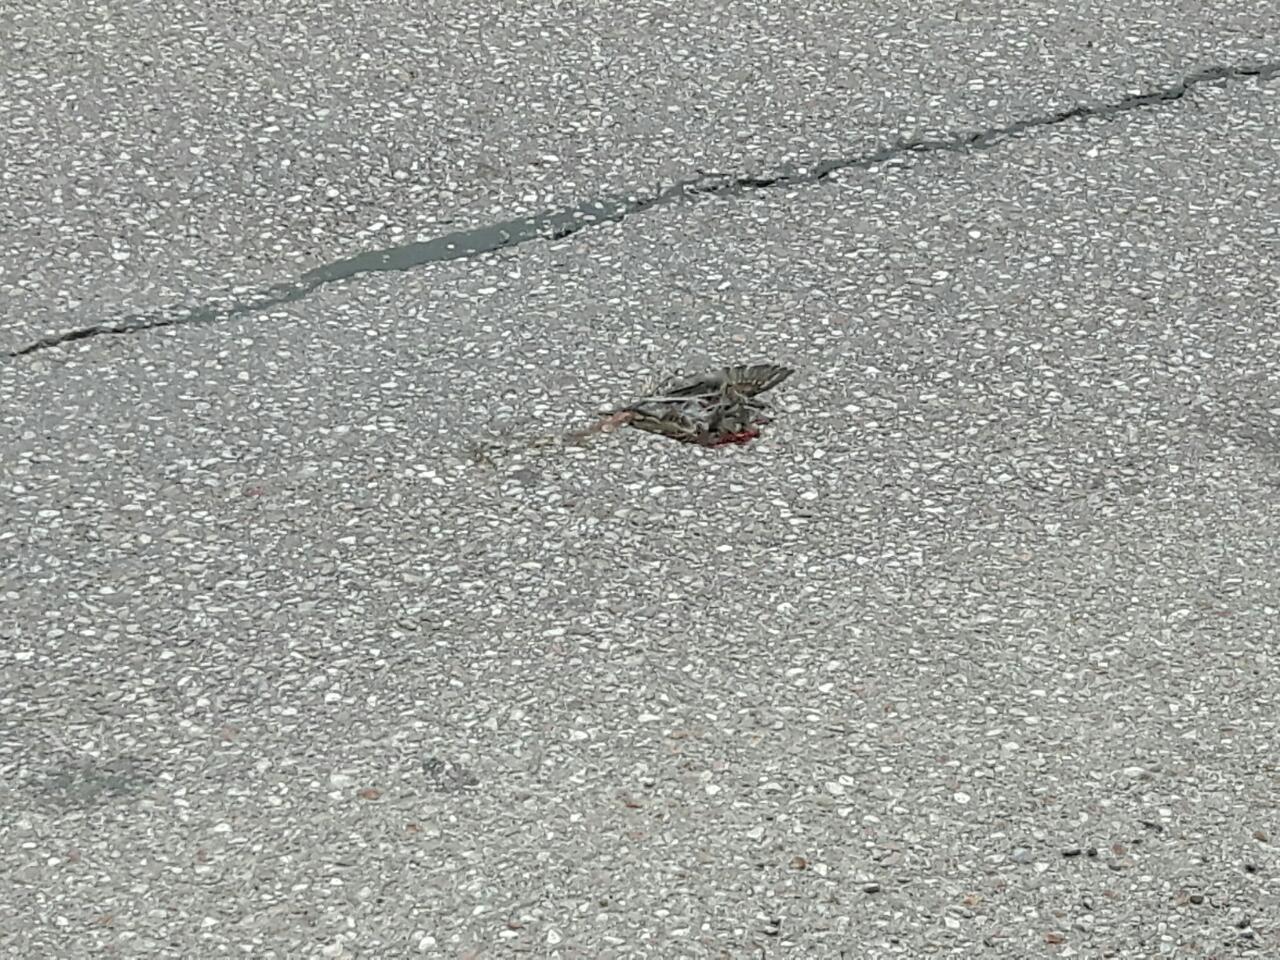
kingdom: Animalia
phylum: Chordata
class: Aves
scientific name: Aves
